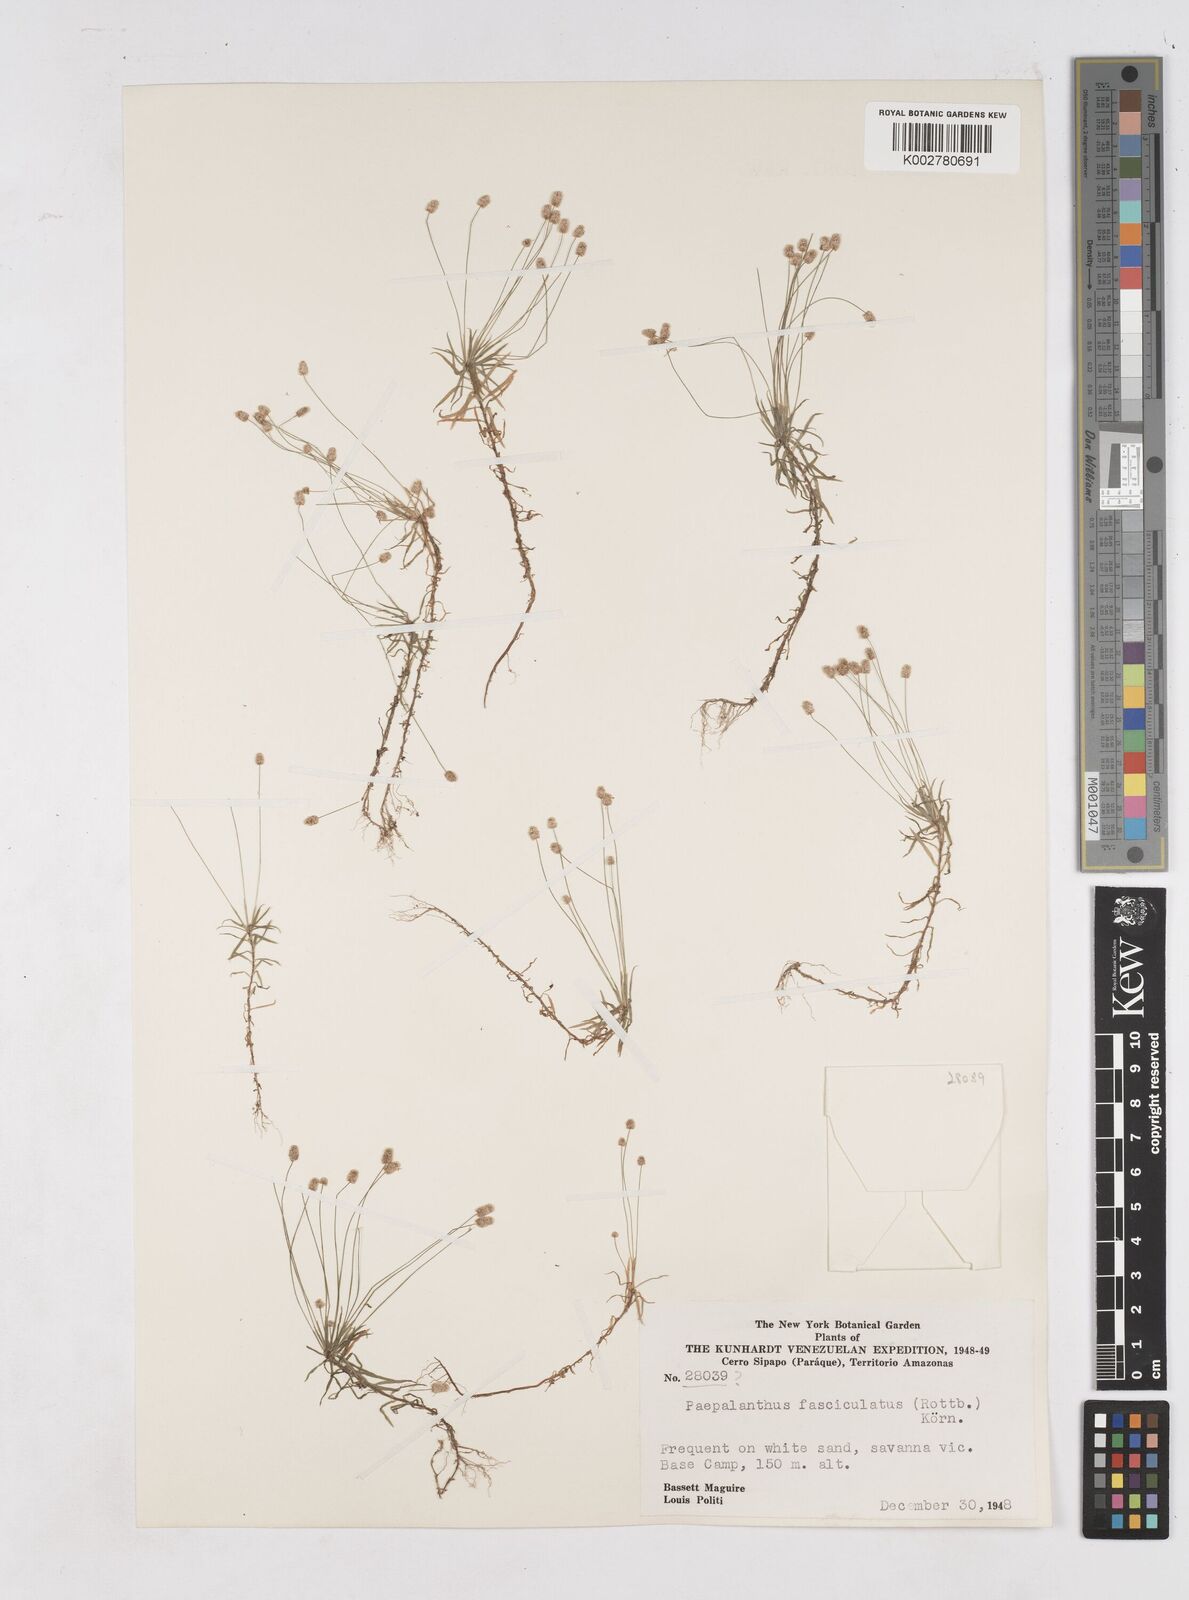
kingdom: Plantae
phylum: Tracheophyta
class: Liliopsida
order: Poales
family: Eriocaulaceae
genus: Paepalanthus
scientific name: Paepalanthus fasciculatus
